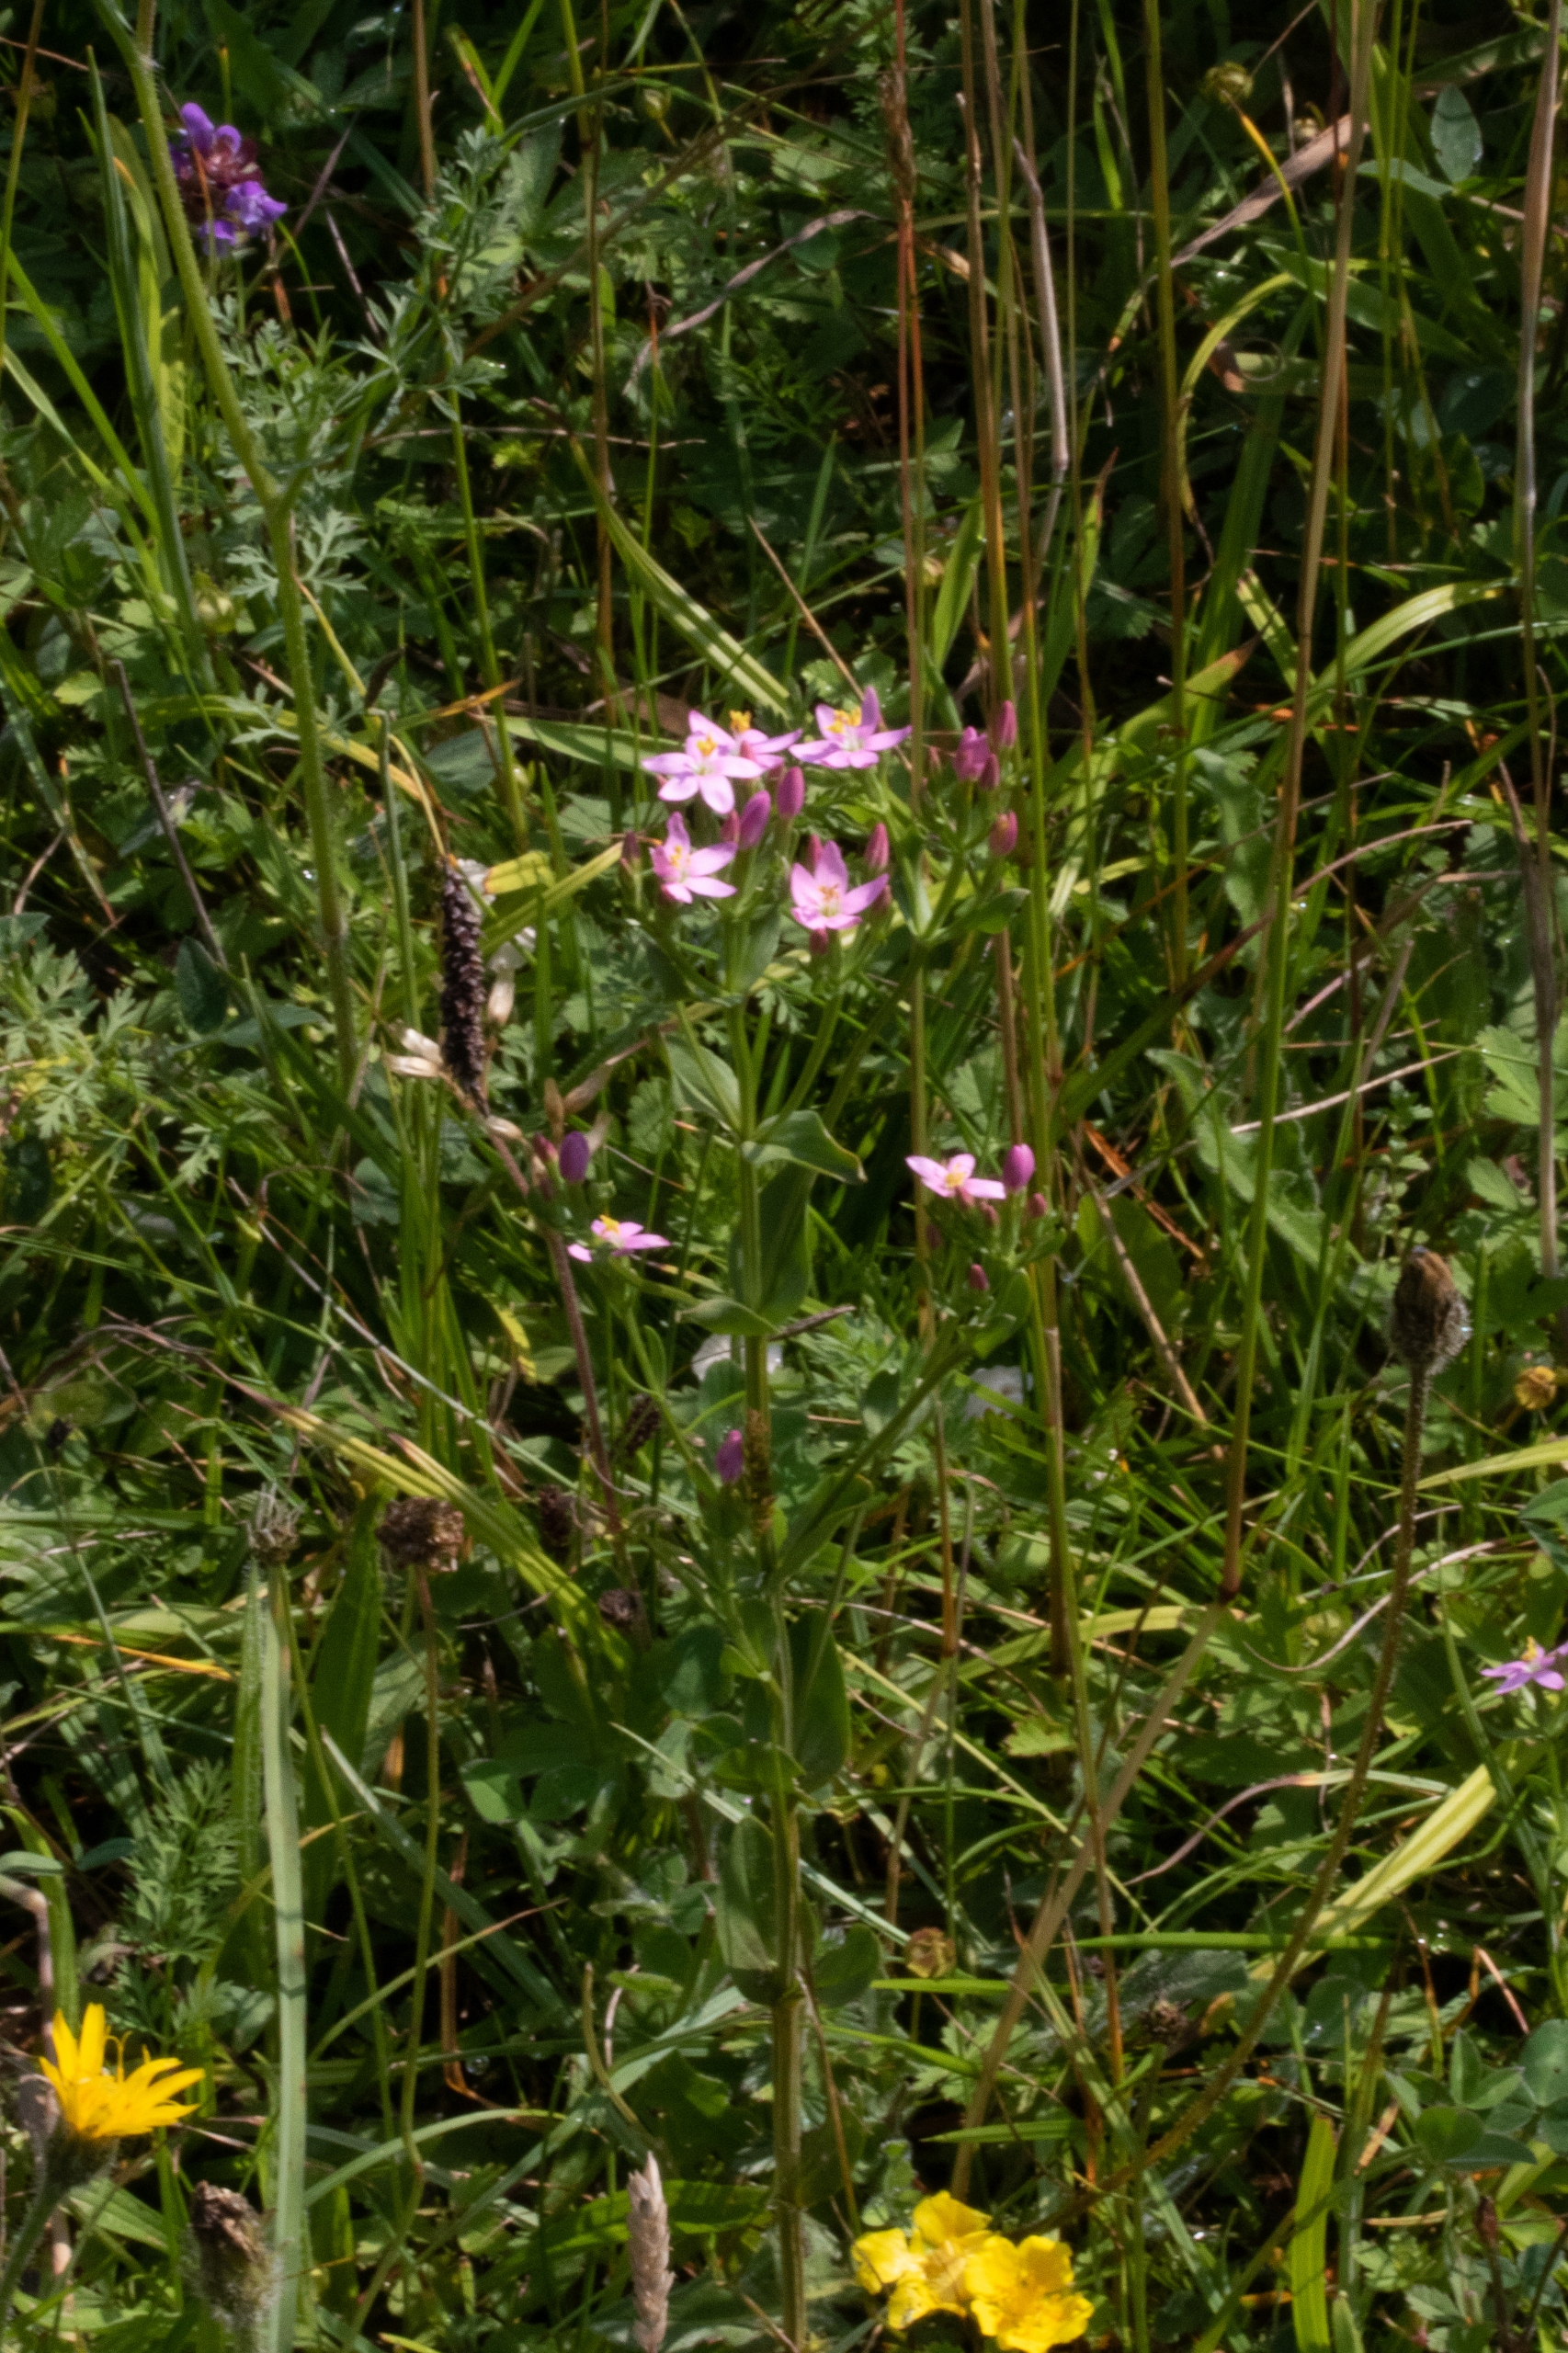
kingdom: Plantae
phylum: Tracheophyta
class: Magnoliopsida
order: Gentianales
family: Gentianaceae
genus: Centaurium
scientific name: Centaurium erythraea
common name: Mark-tusindgylden
